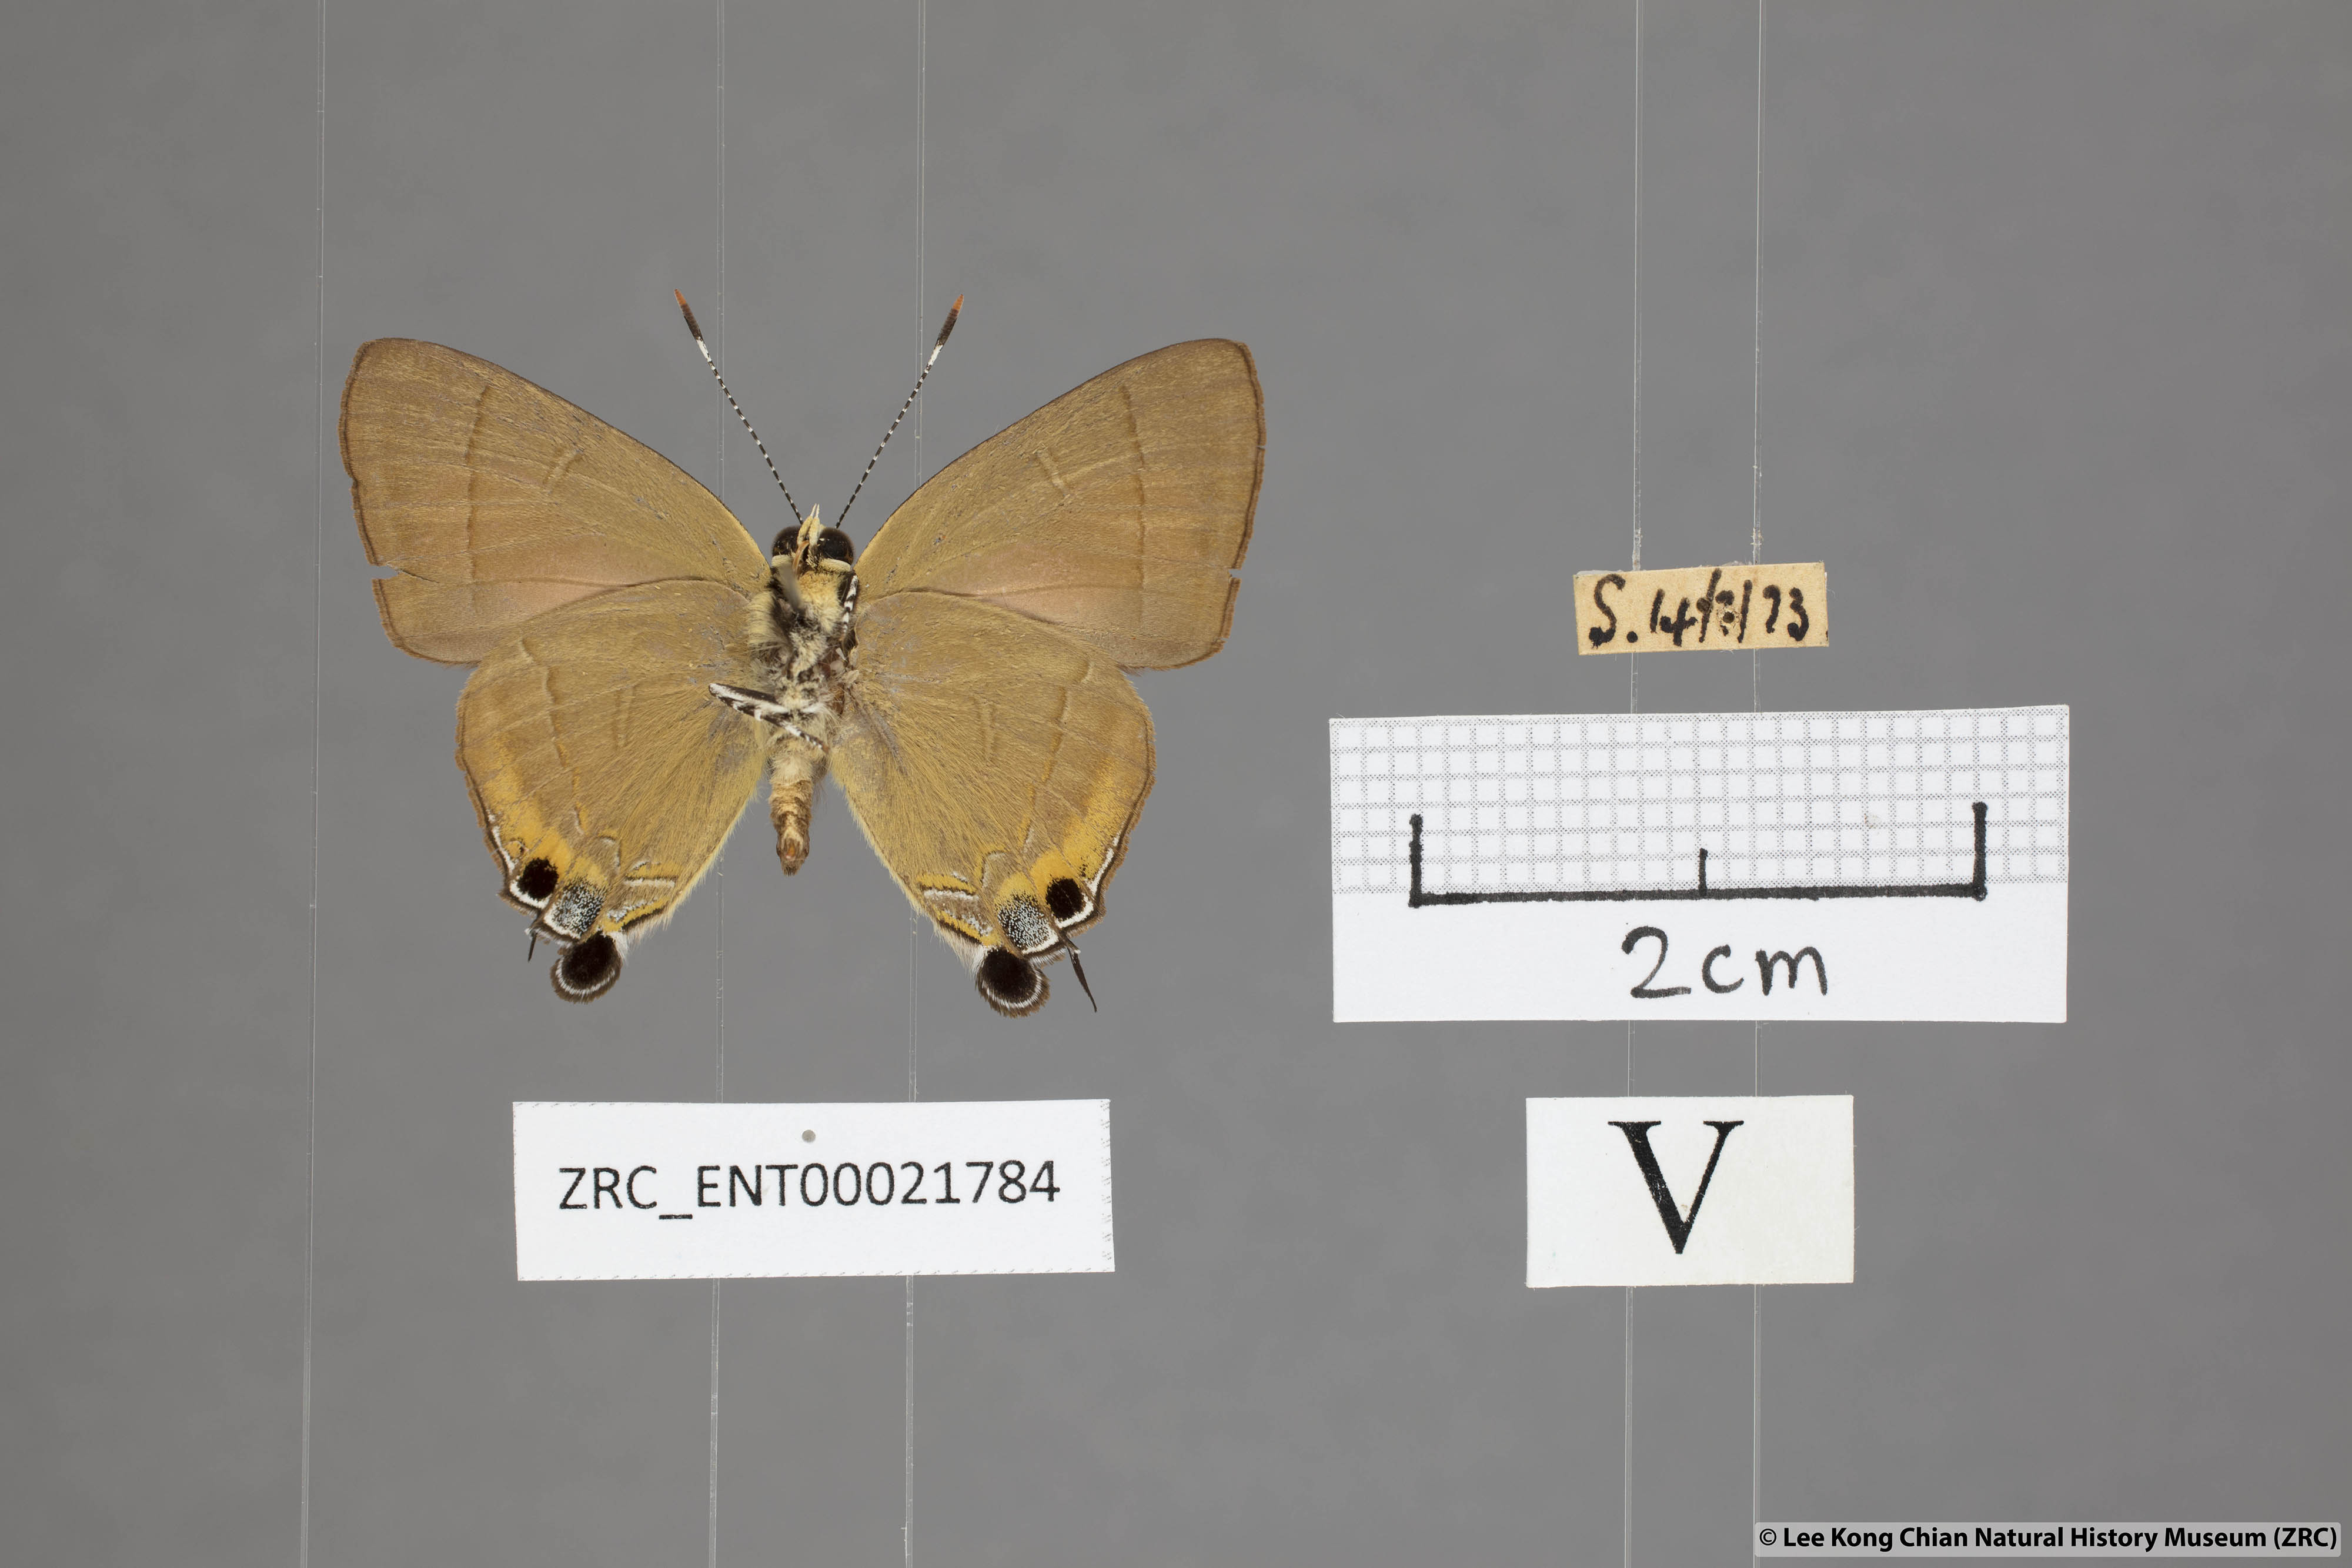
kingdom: Animalia
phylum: Arthropoda
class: Insecta
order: Lepidoptera
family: Lycaenidae
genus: Rapala
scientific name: Rapala dieneces
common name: Scarlet flash
